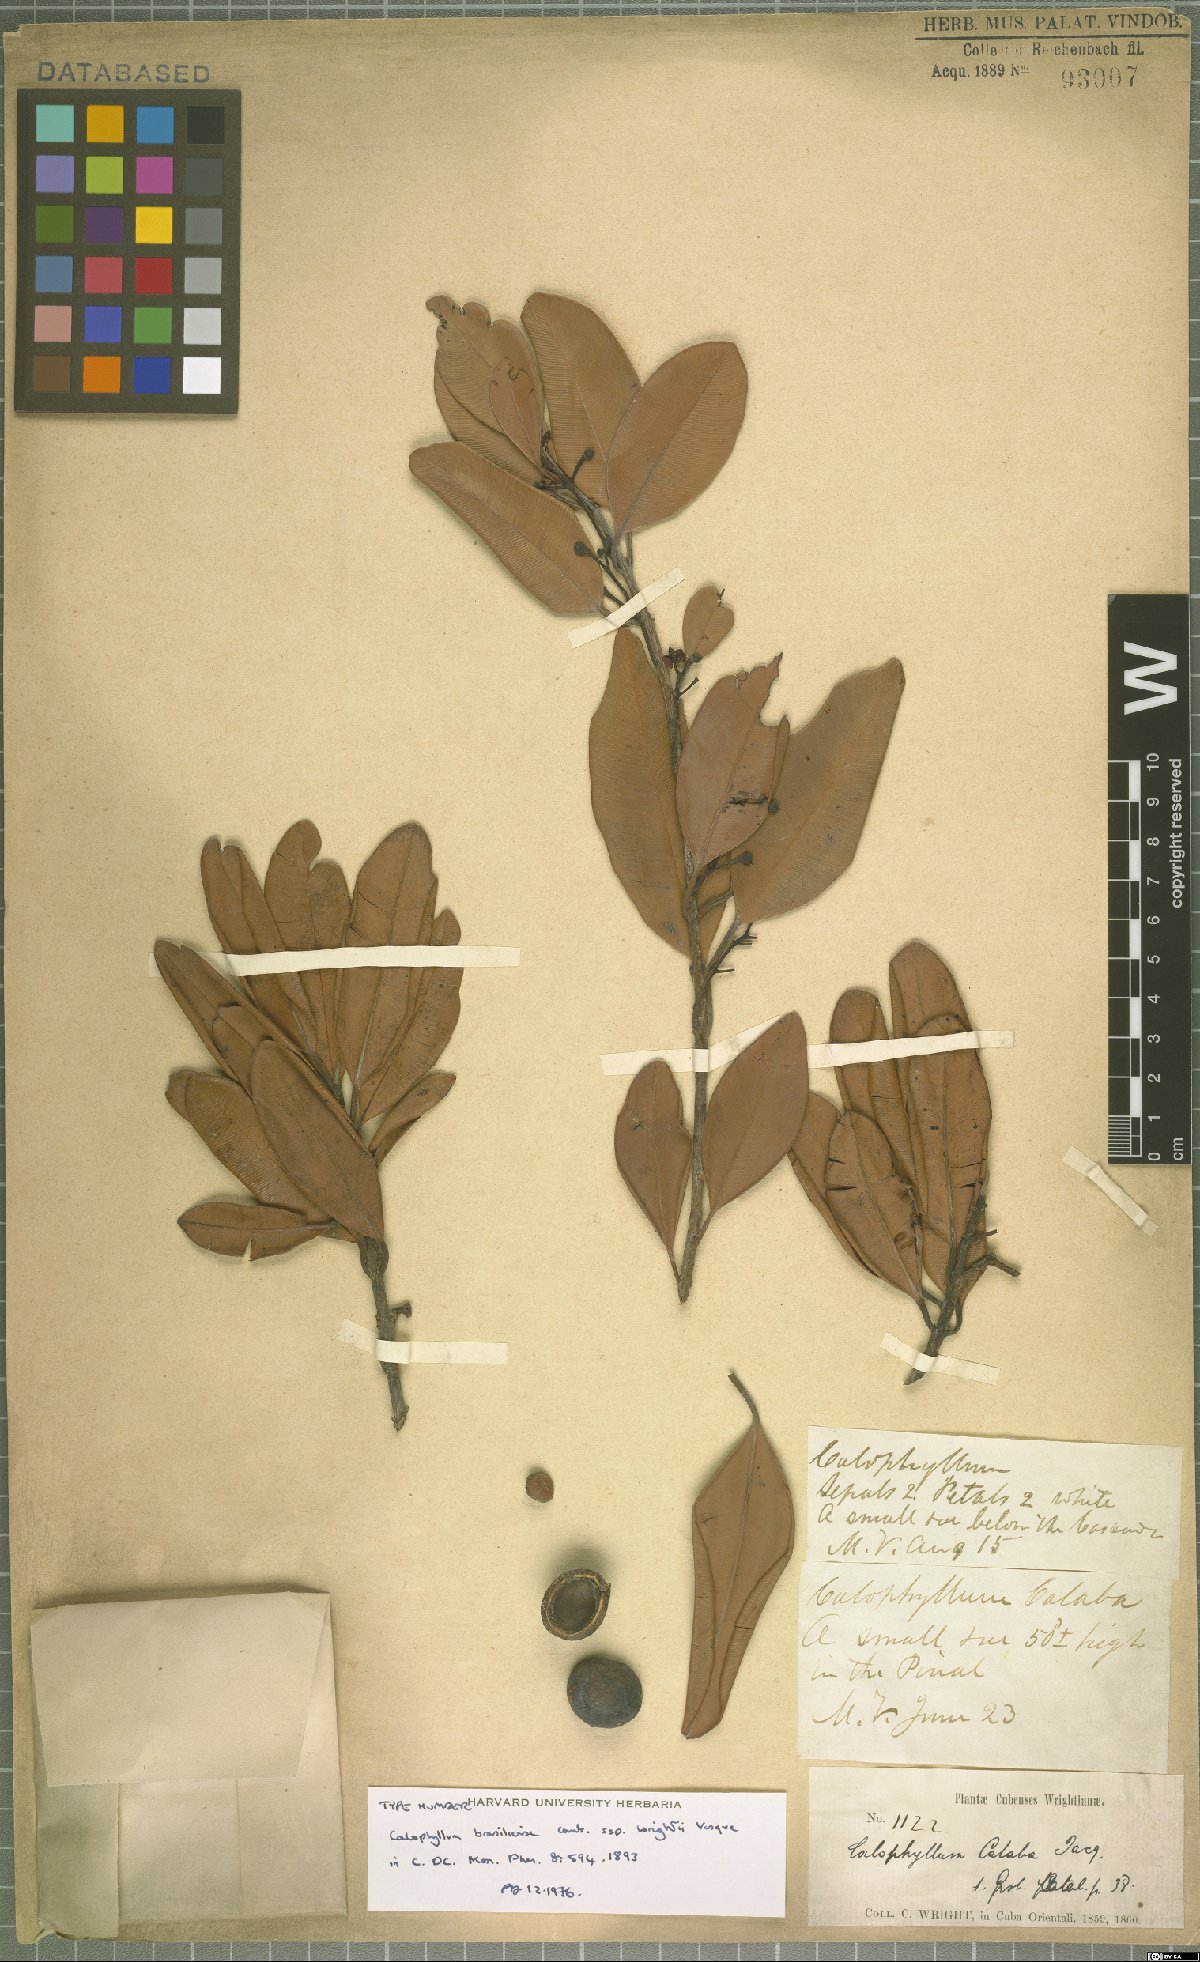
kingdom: Plantae
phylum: Tracheophyta
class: Magnoliopsida
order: Malpighiales
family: Calophyllaceae
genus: Calophyllum
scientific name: Calophyllum brasiliense
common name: Santa maria
